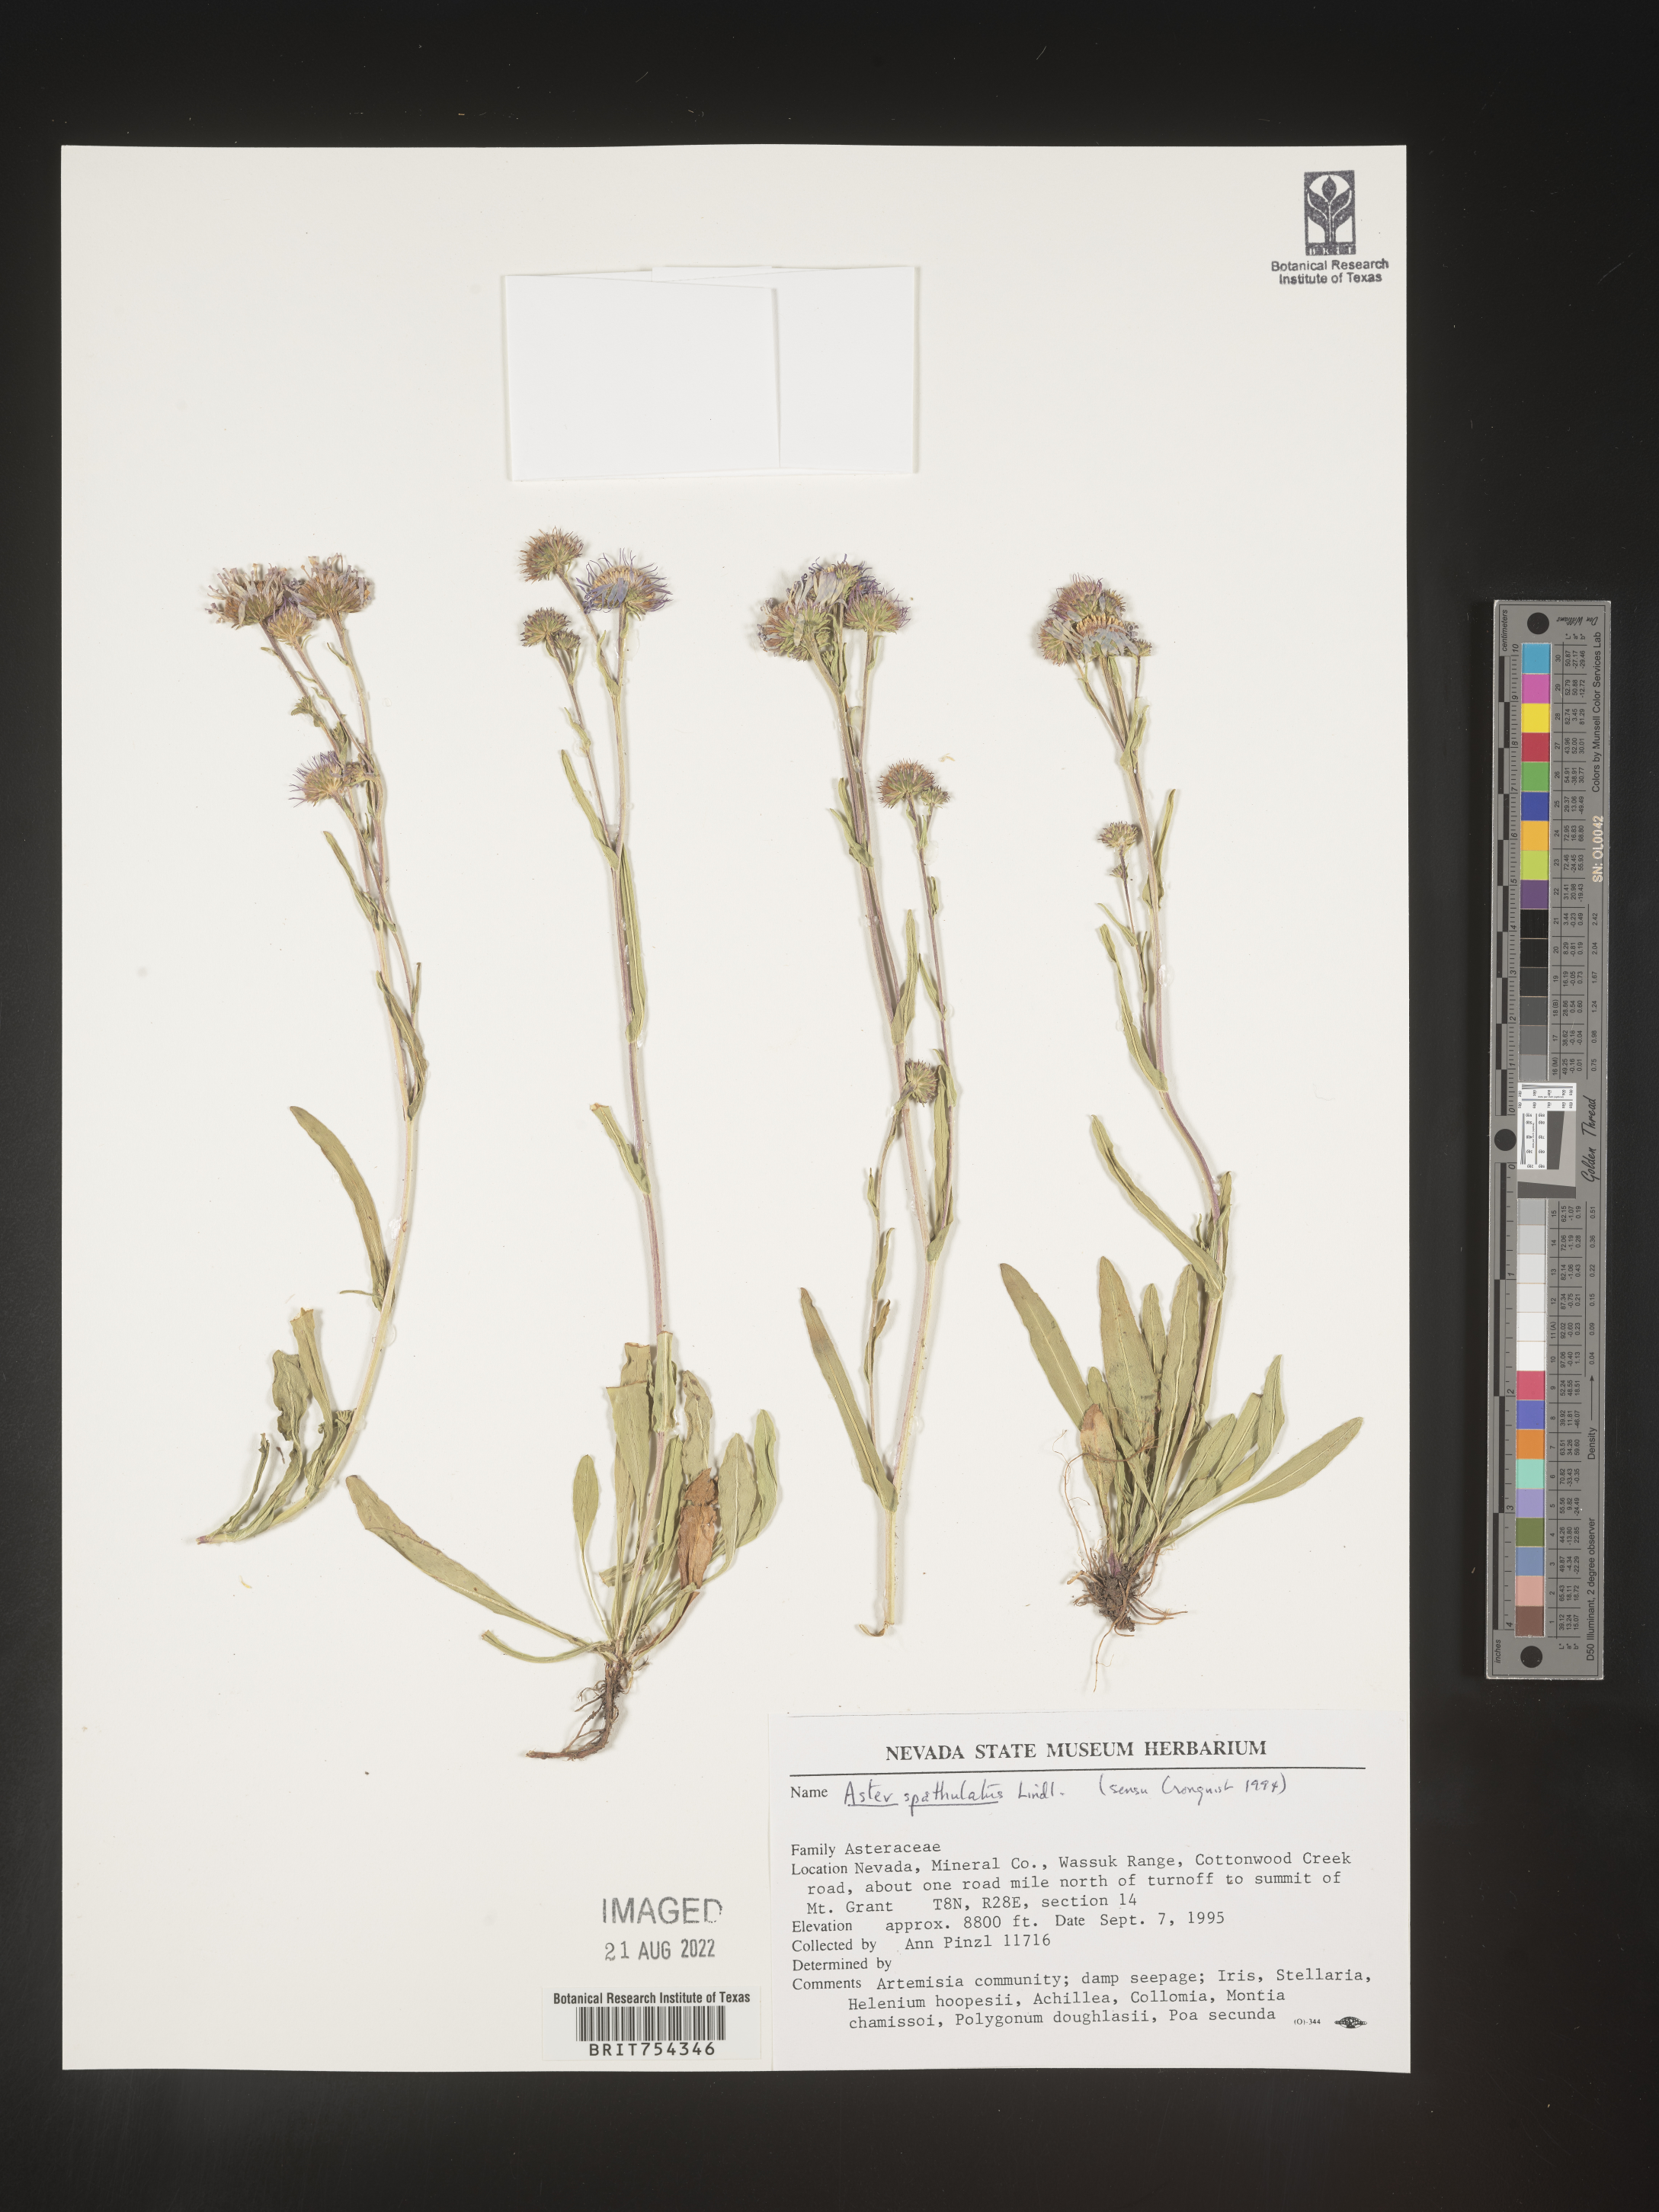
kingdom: Plantae
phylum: Tracheophyta
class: Magnoliopsida
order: Asterales
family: Asteraceae
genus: Symphyotrichum
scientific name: Symphyotrichum spathulatum
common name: Western mountain aster
